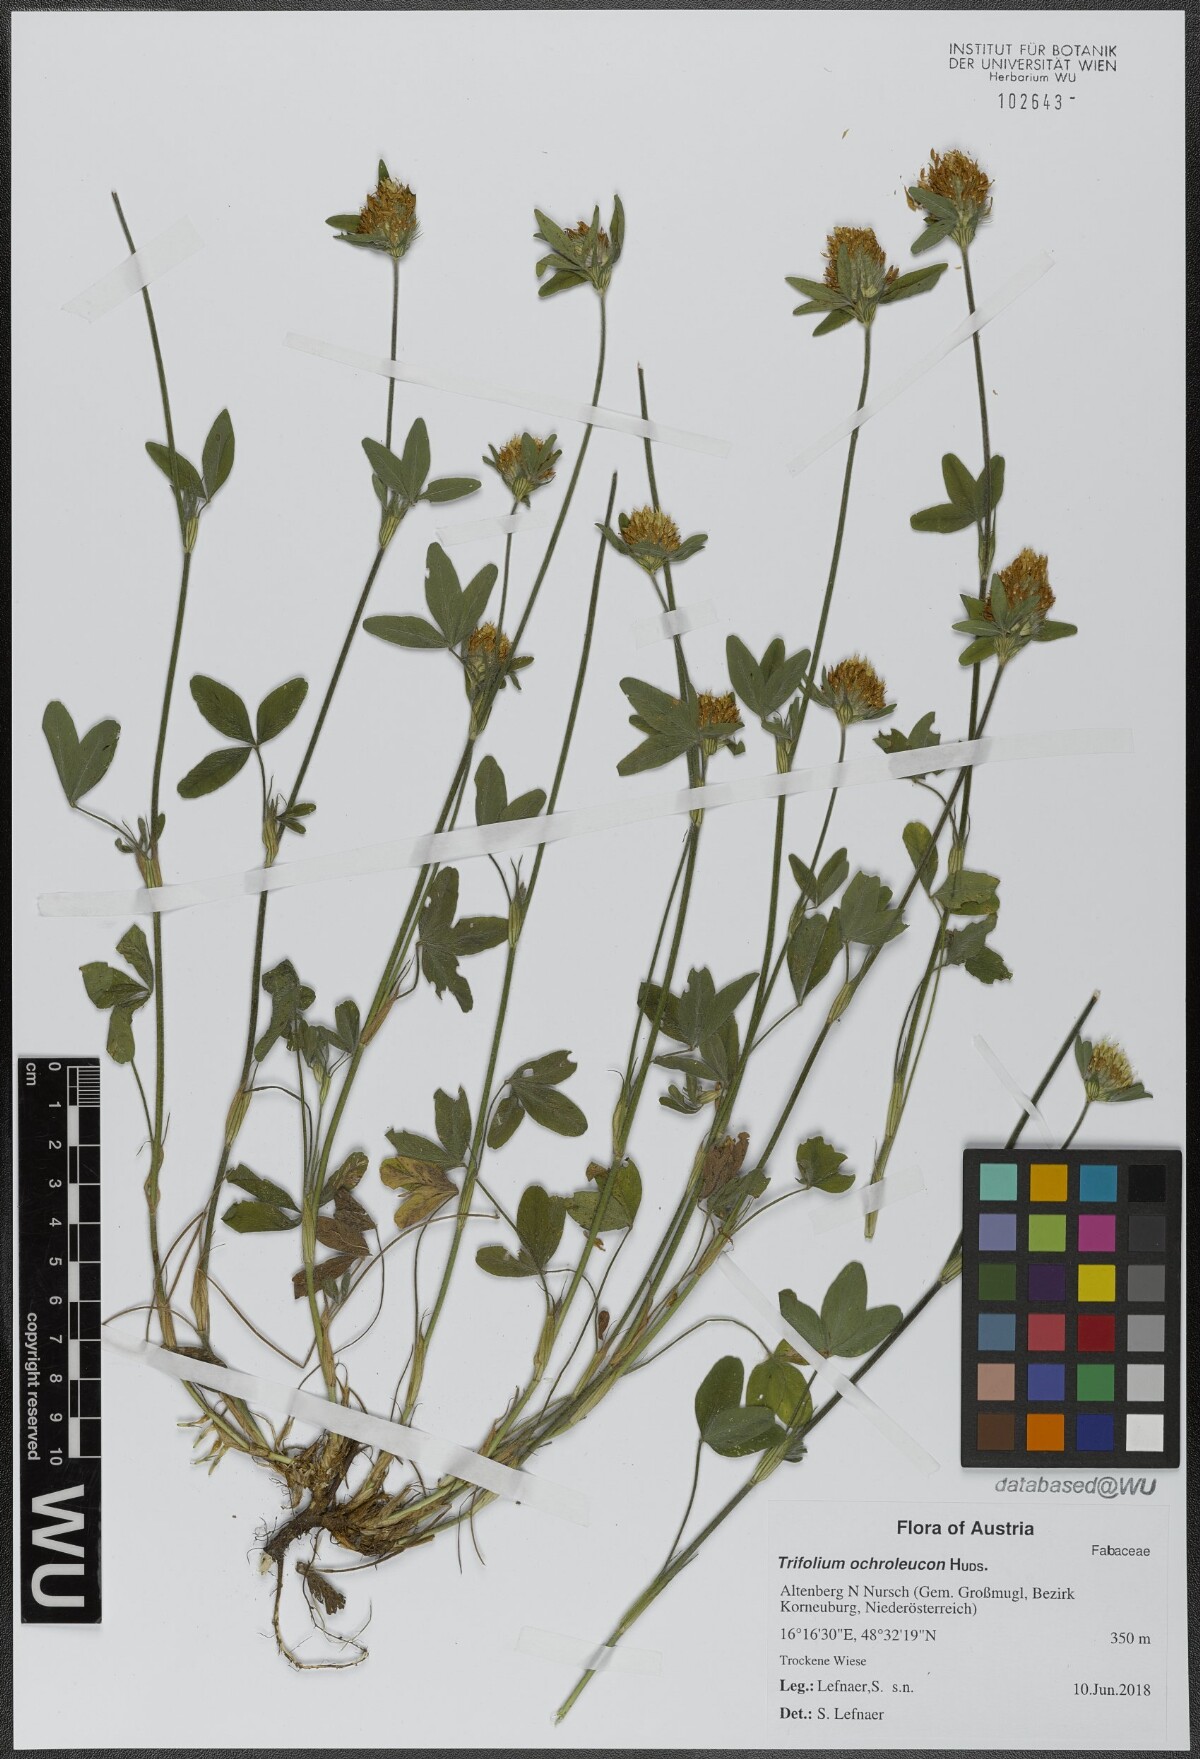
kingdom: Plantae
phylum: Tracheophyta
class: Magnoliopsida
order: Fabales
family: Fabaceae
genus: Trifolium
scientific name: Trifolium ochroleucon
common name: Sulphur clover
